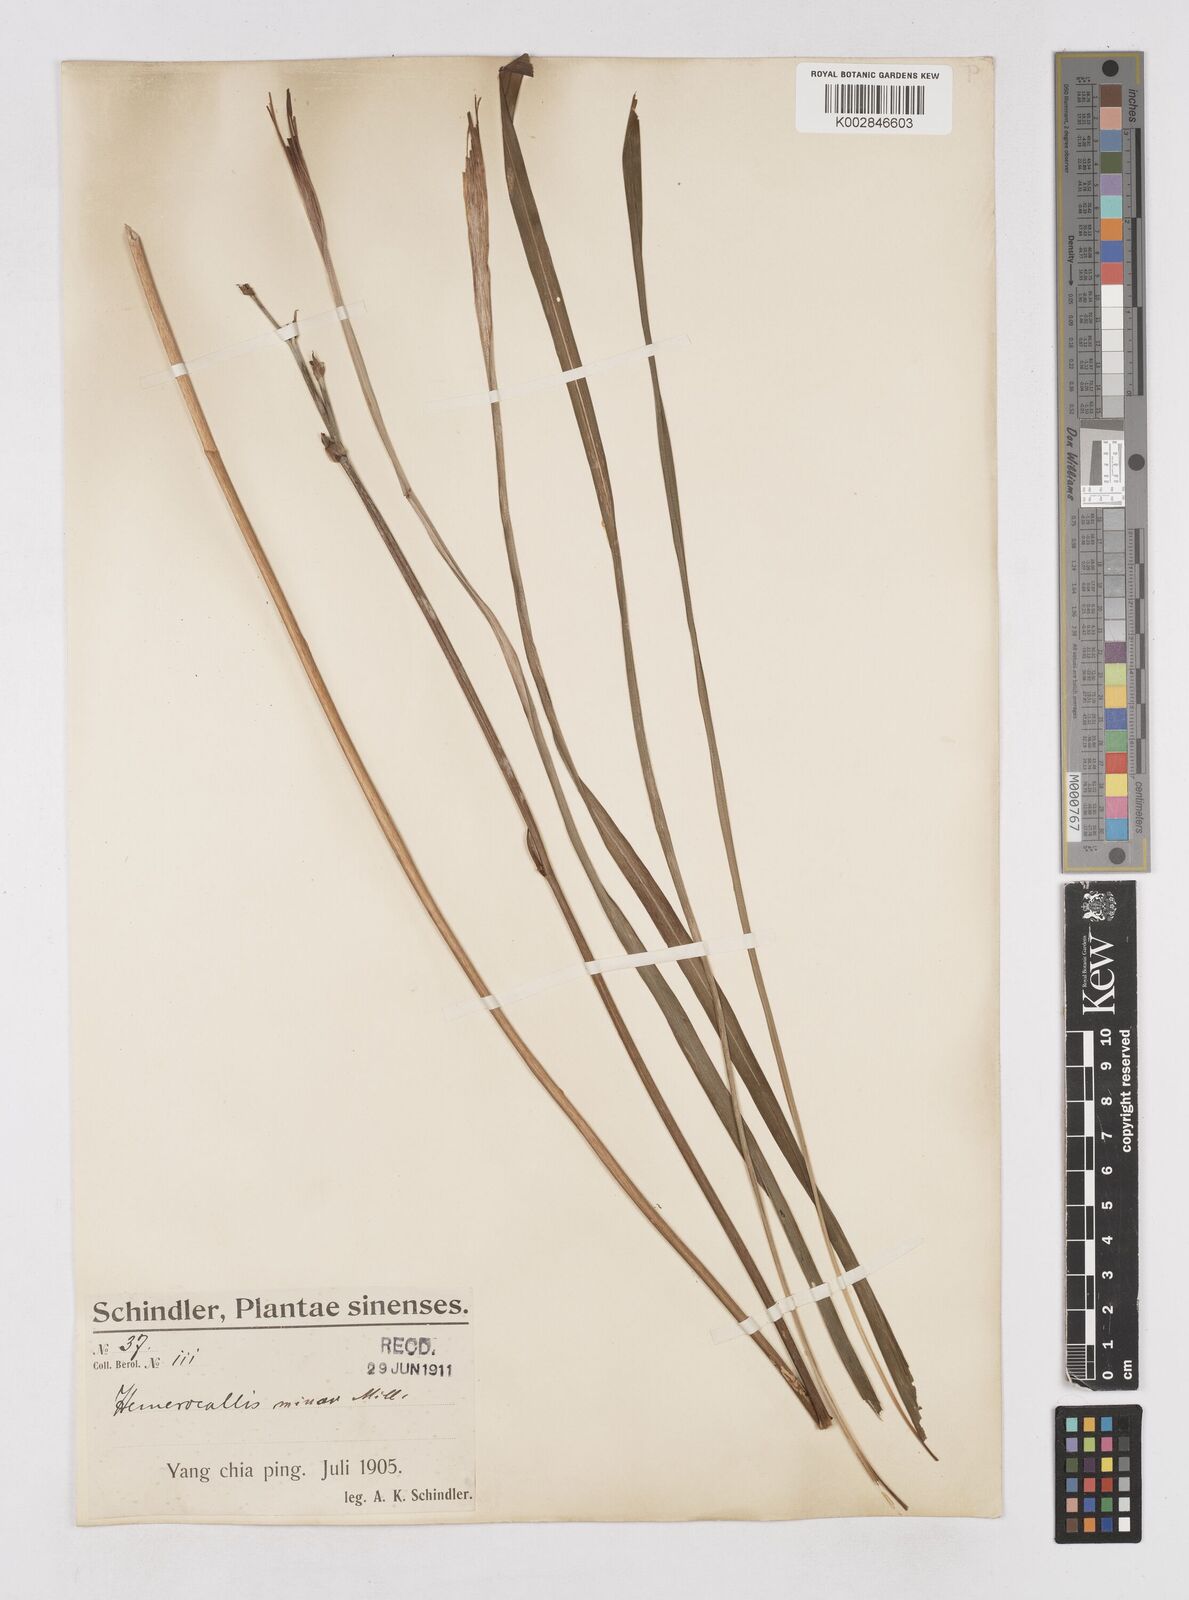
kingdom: Plantae
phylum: Tracheophyta
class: Liliopsida
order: Asparagales
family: Asphodelaceae
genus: Hemerocallis
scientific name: Hemerocallis minor
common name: Small daylily
